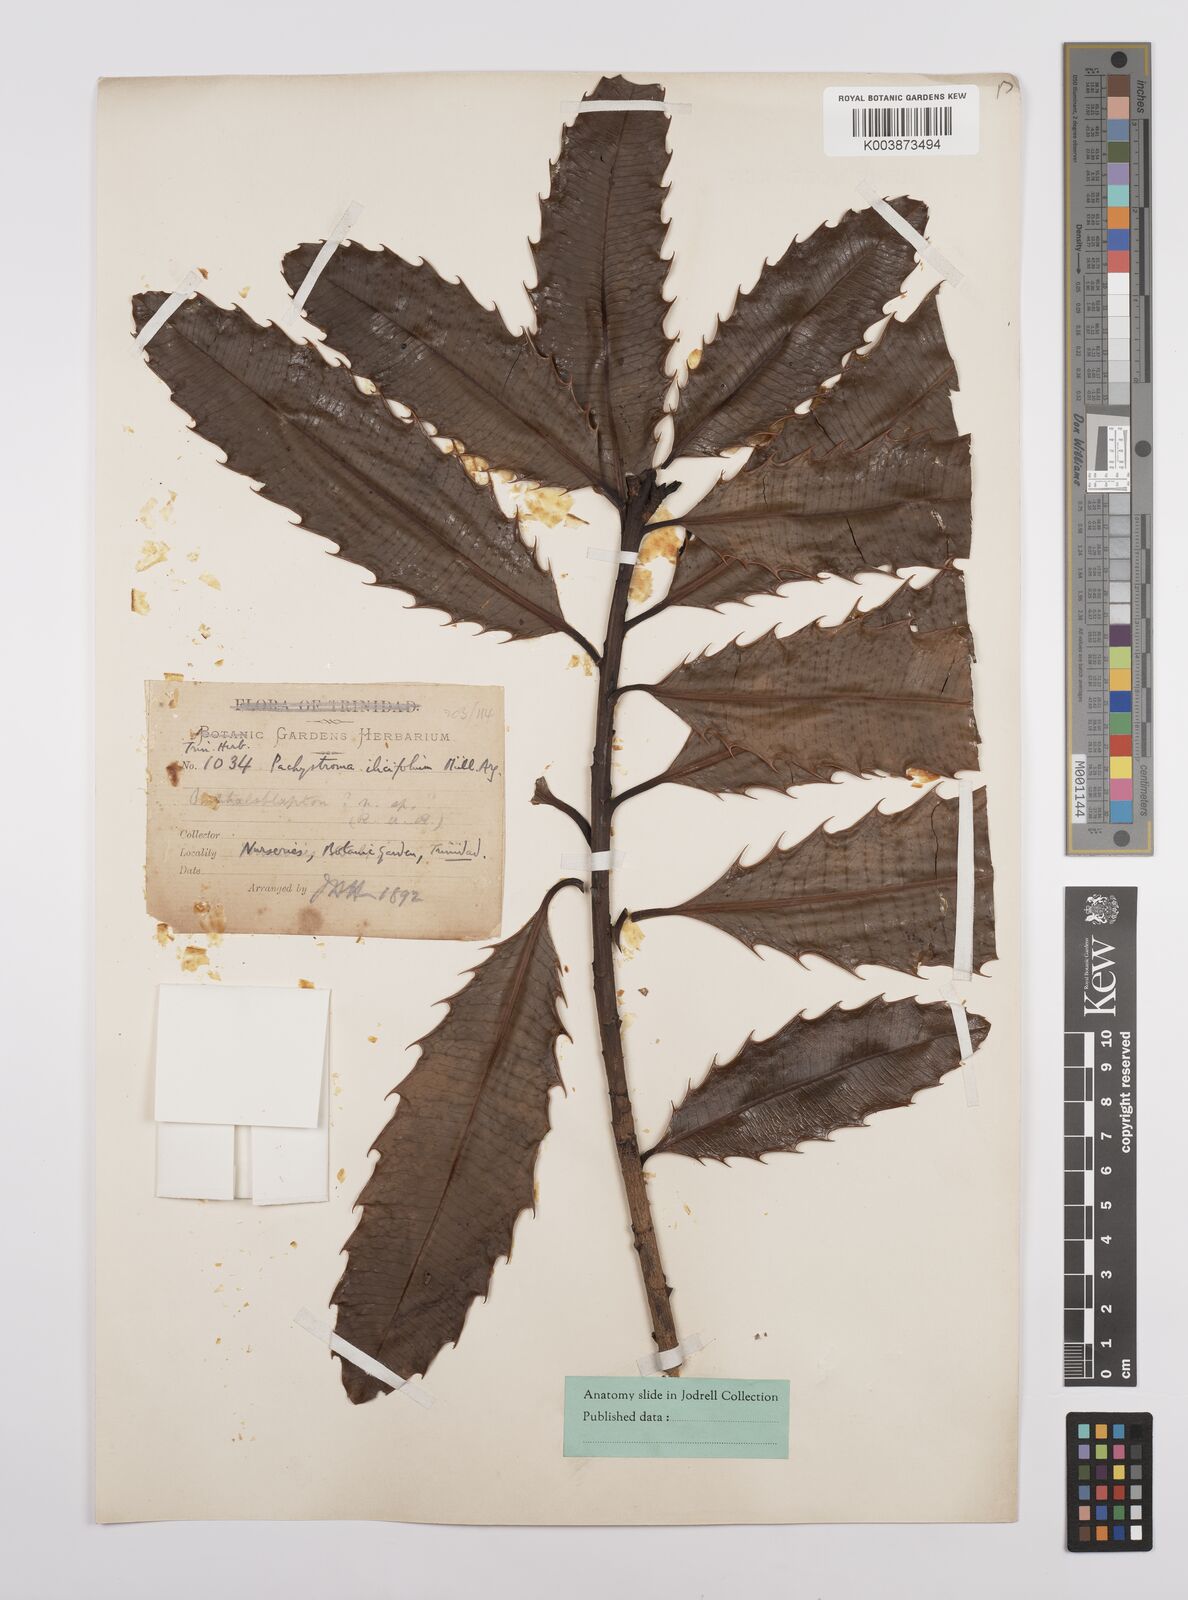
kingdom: Plantae
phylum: Tracheophyta
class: Magnoliopsida
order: Malpighiales
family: Euphorbiaceae
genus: Pachystroma
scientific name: Pachystroma longifolium
